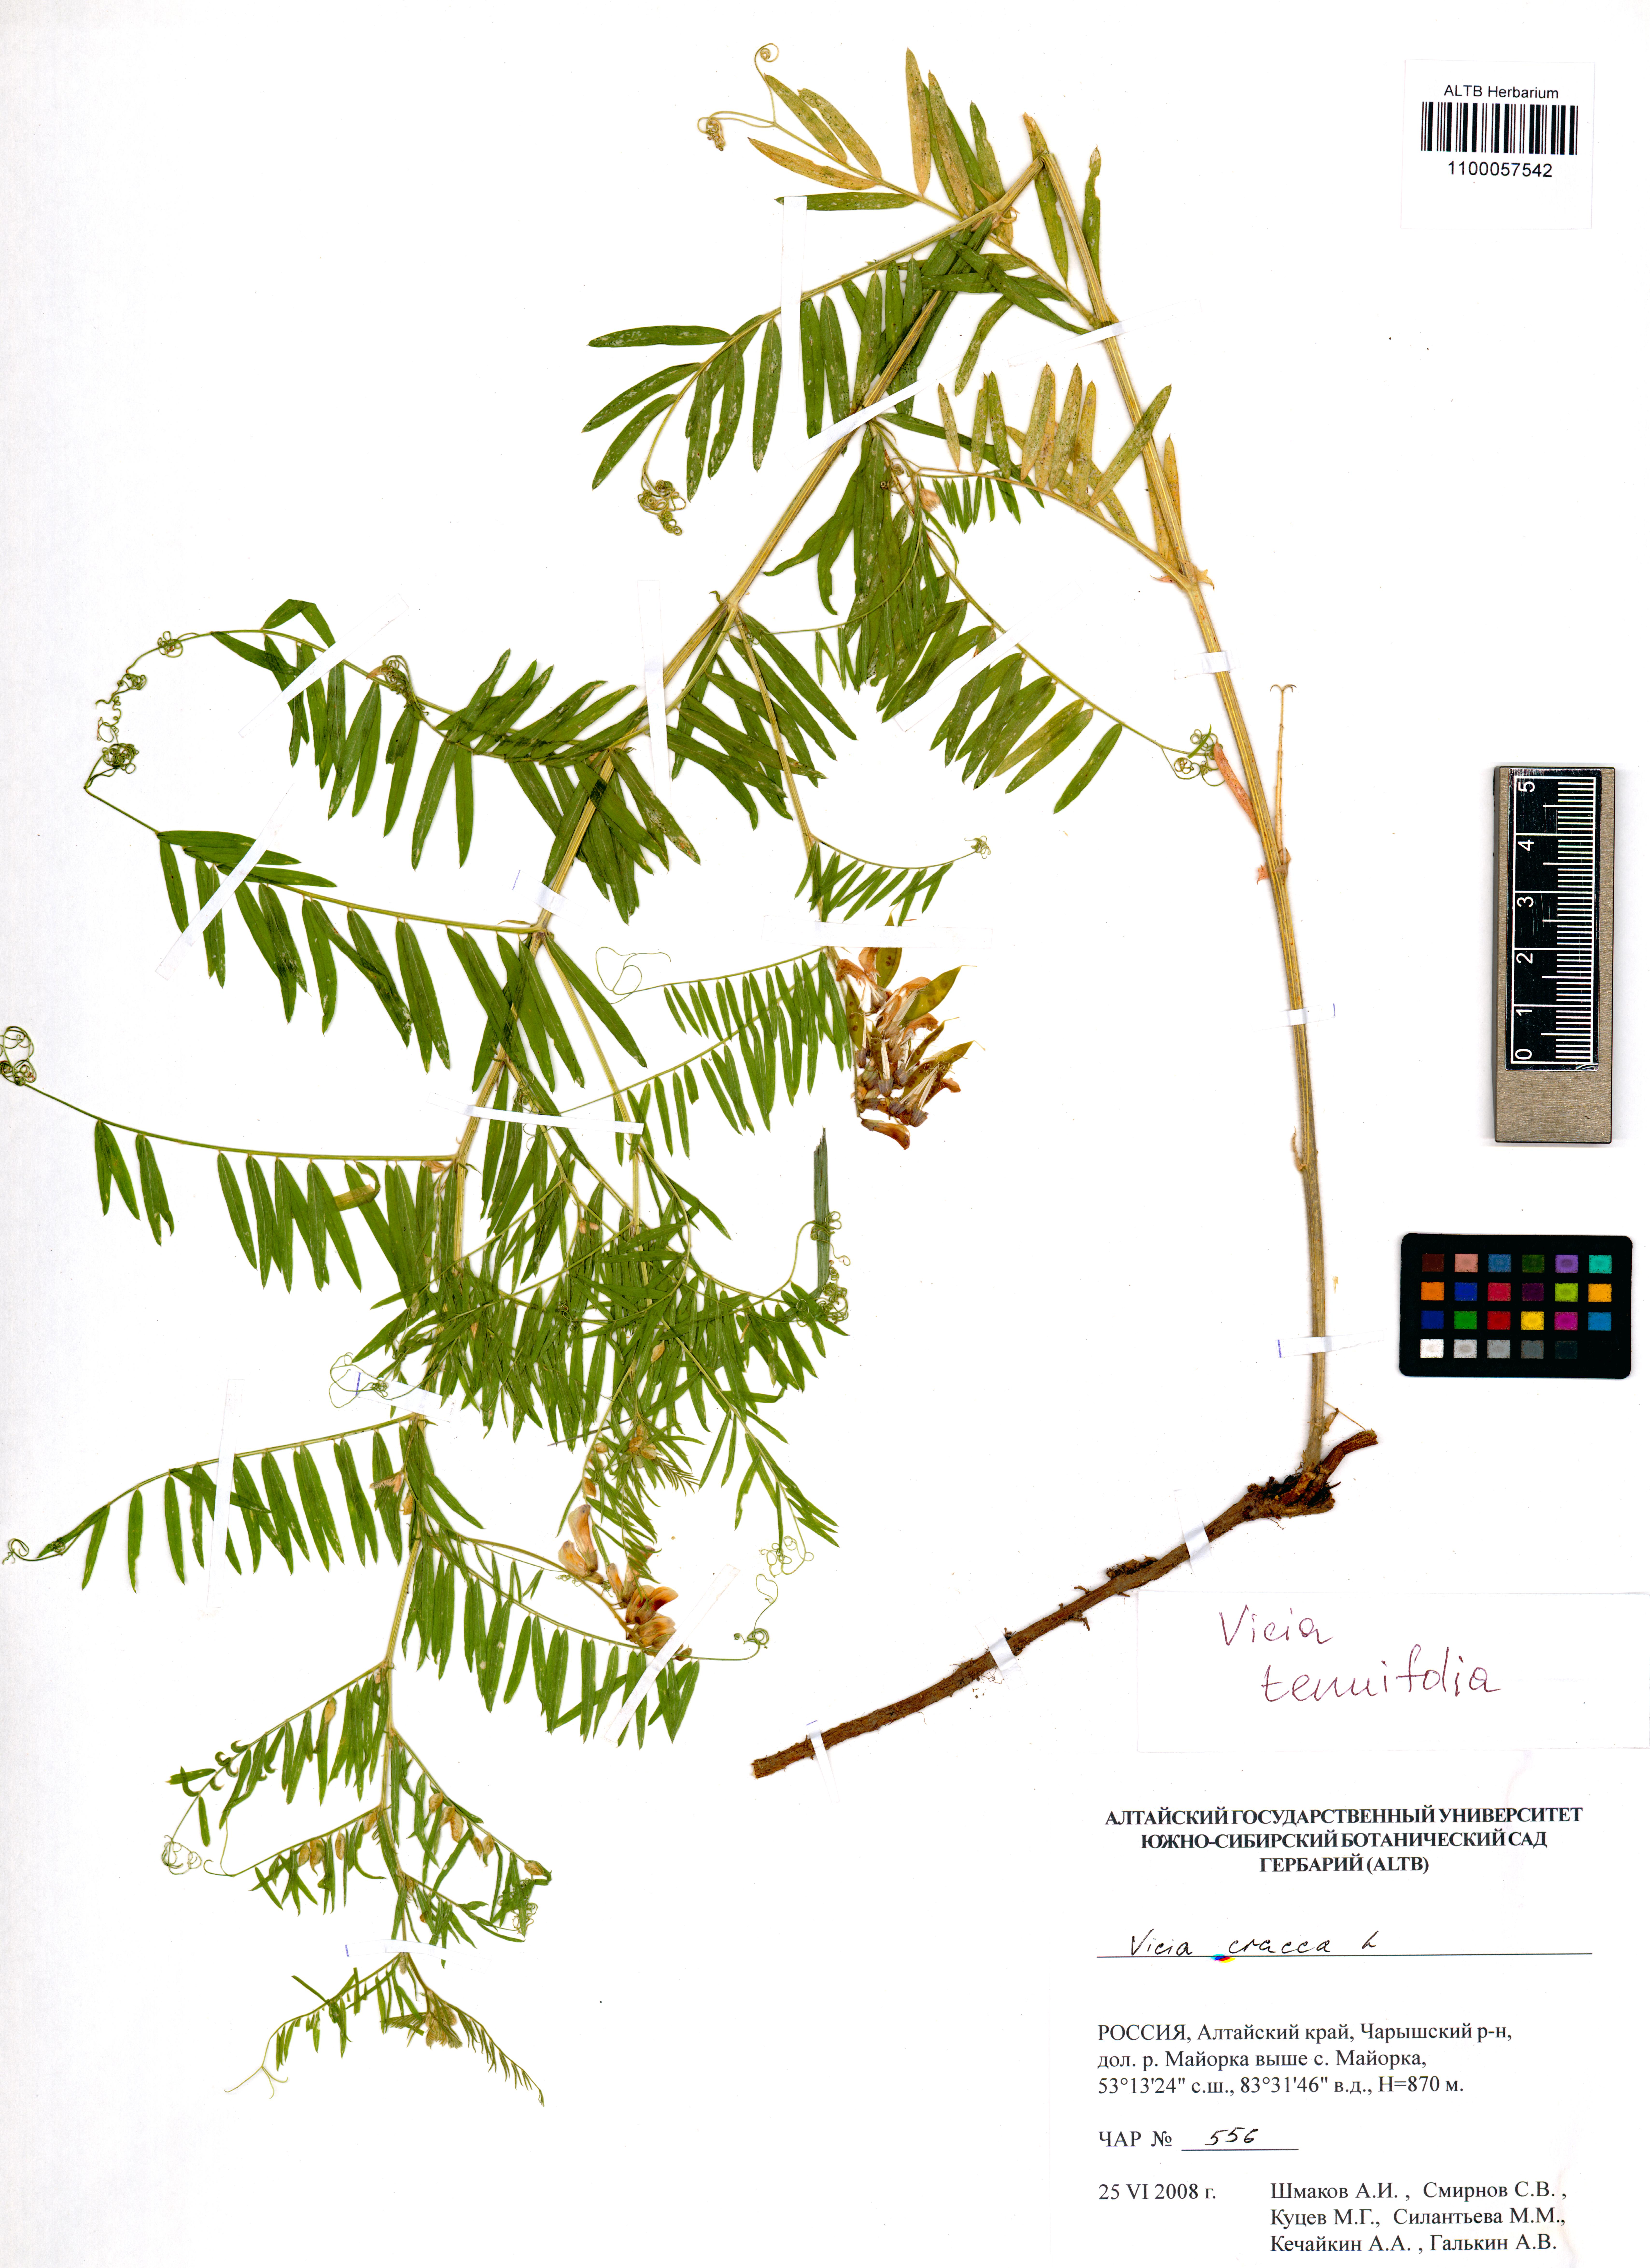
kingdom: Plantae
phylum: Tracheophyta
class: Magnoliopsida
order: Fabales
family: Fabaceae
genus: Vicia
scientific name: Vicia tenuifolia
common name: Fine-leaved vetch
